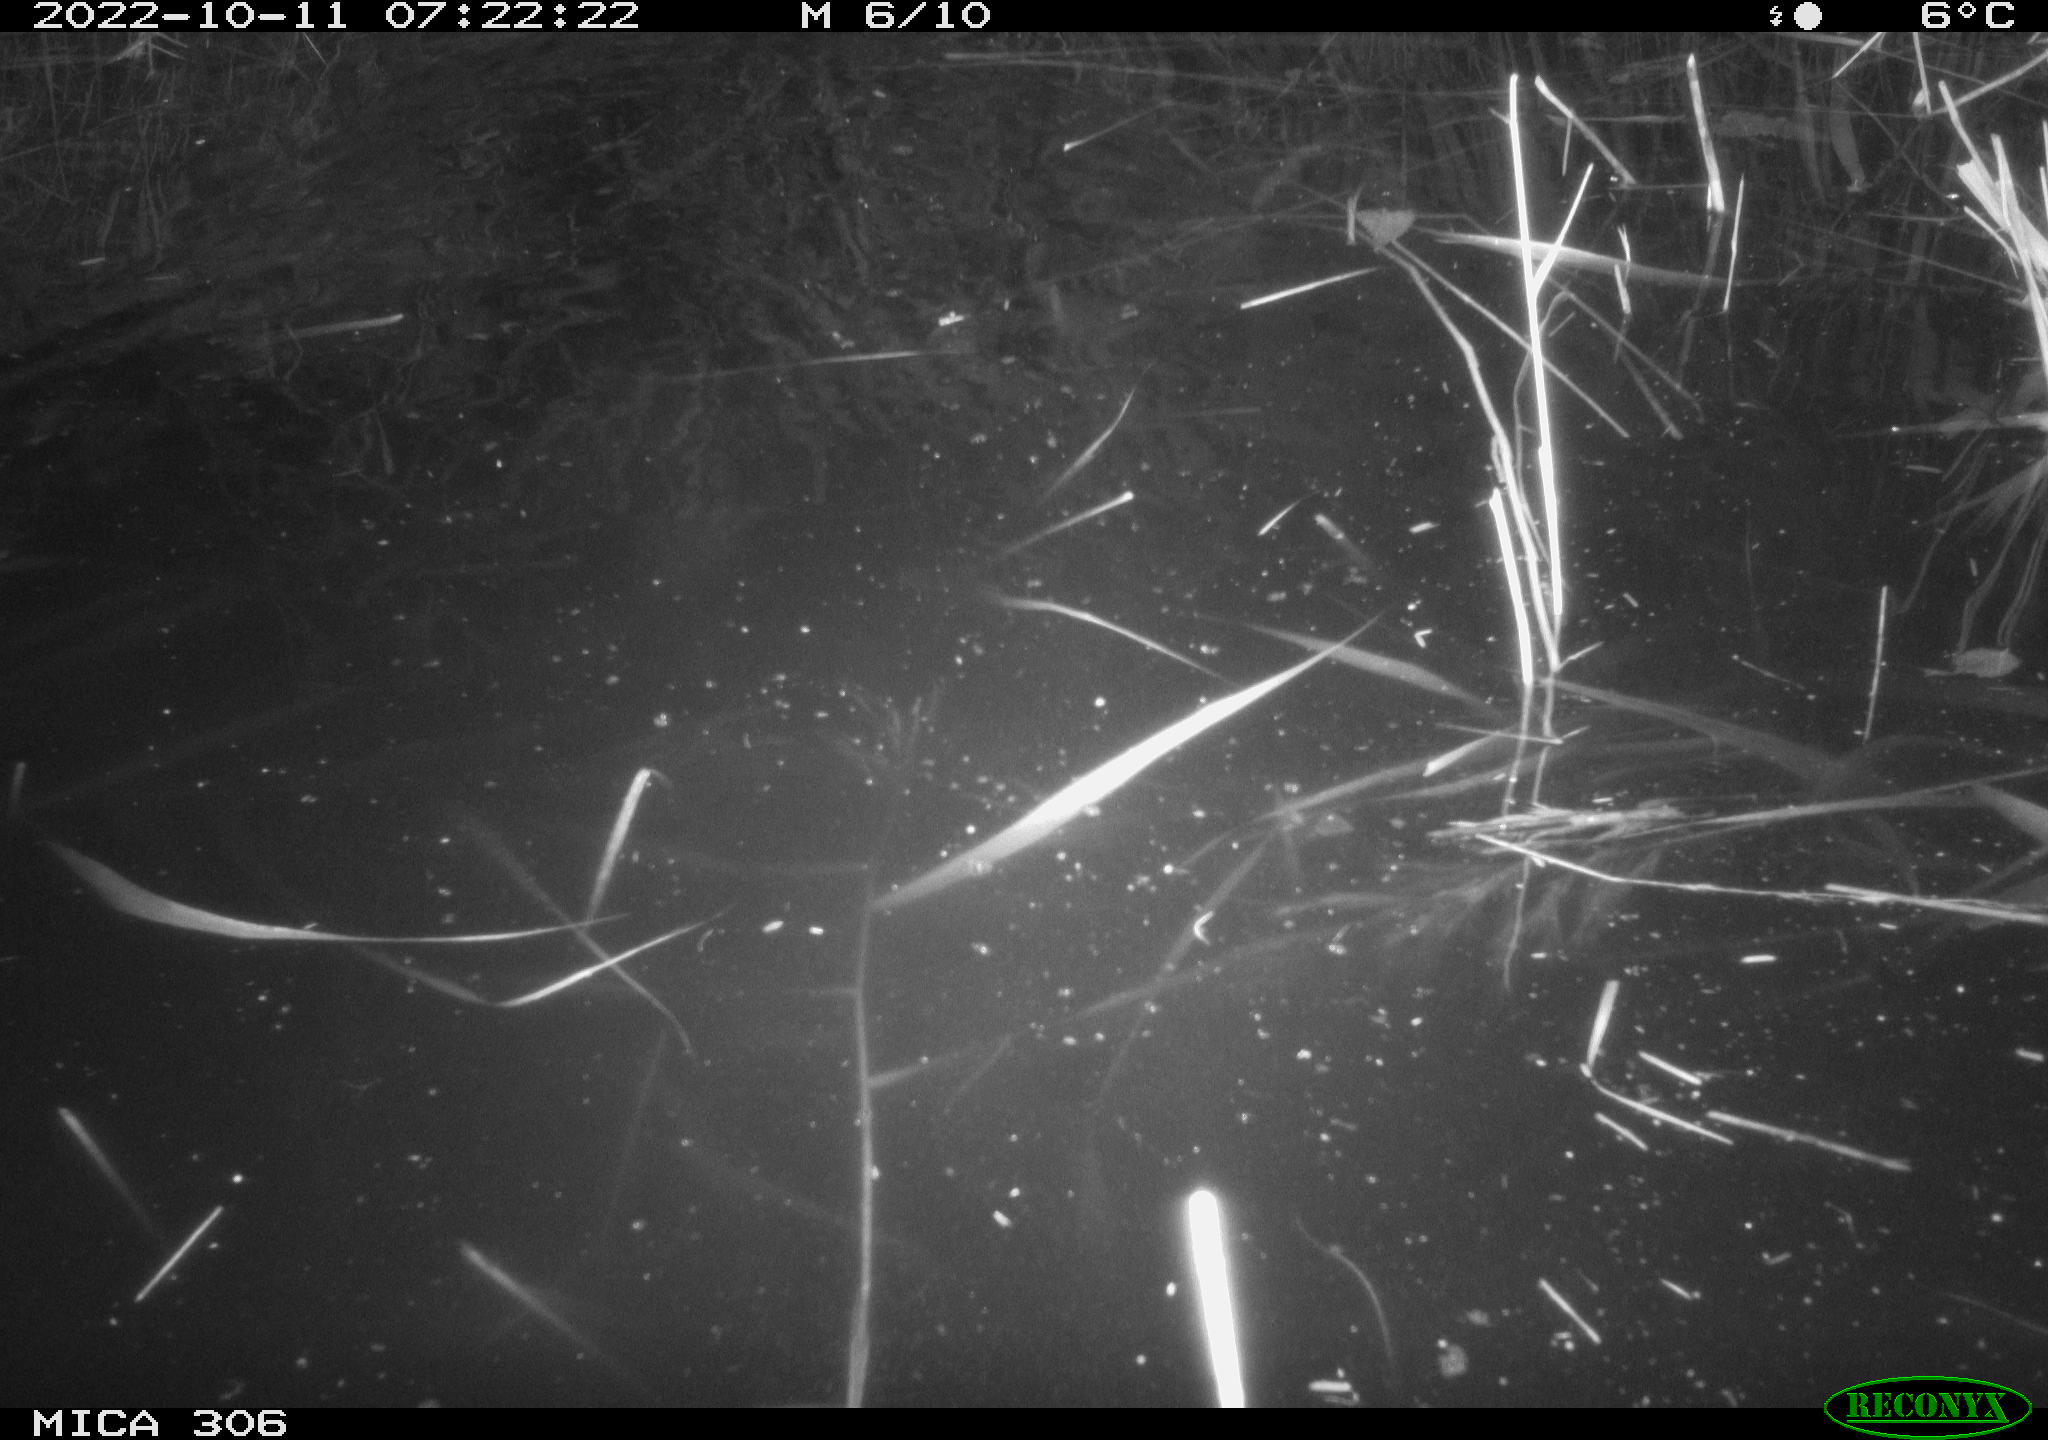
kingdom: Animalia
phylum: Chordata
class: Mammalia
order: Rodentia
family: Muridae
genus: Rattus
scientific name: Rattus norvegicus
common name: Brown rat
